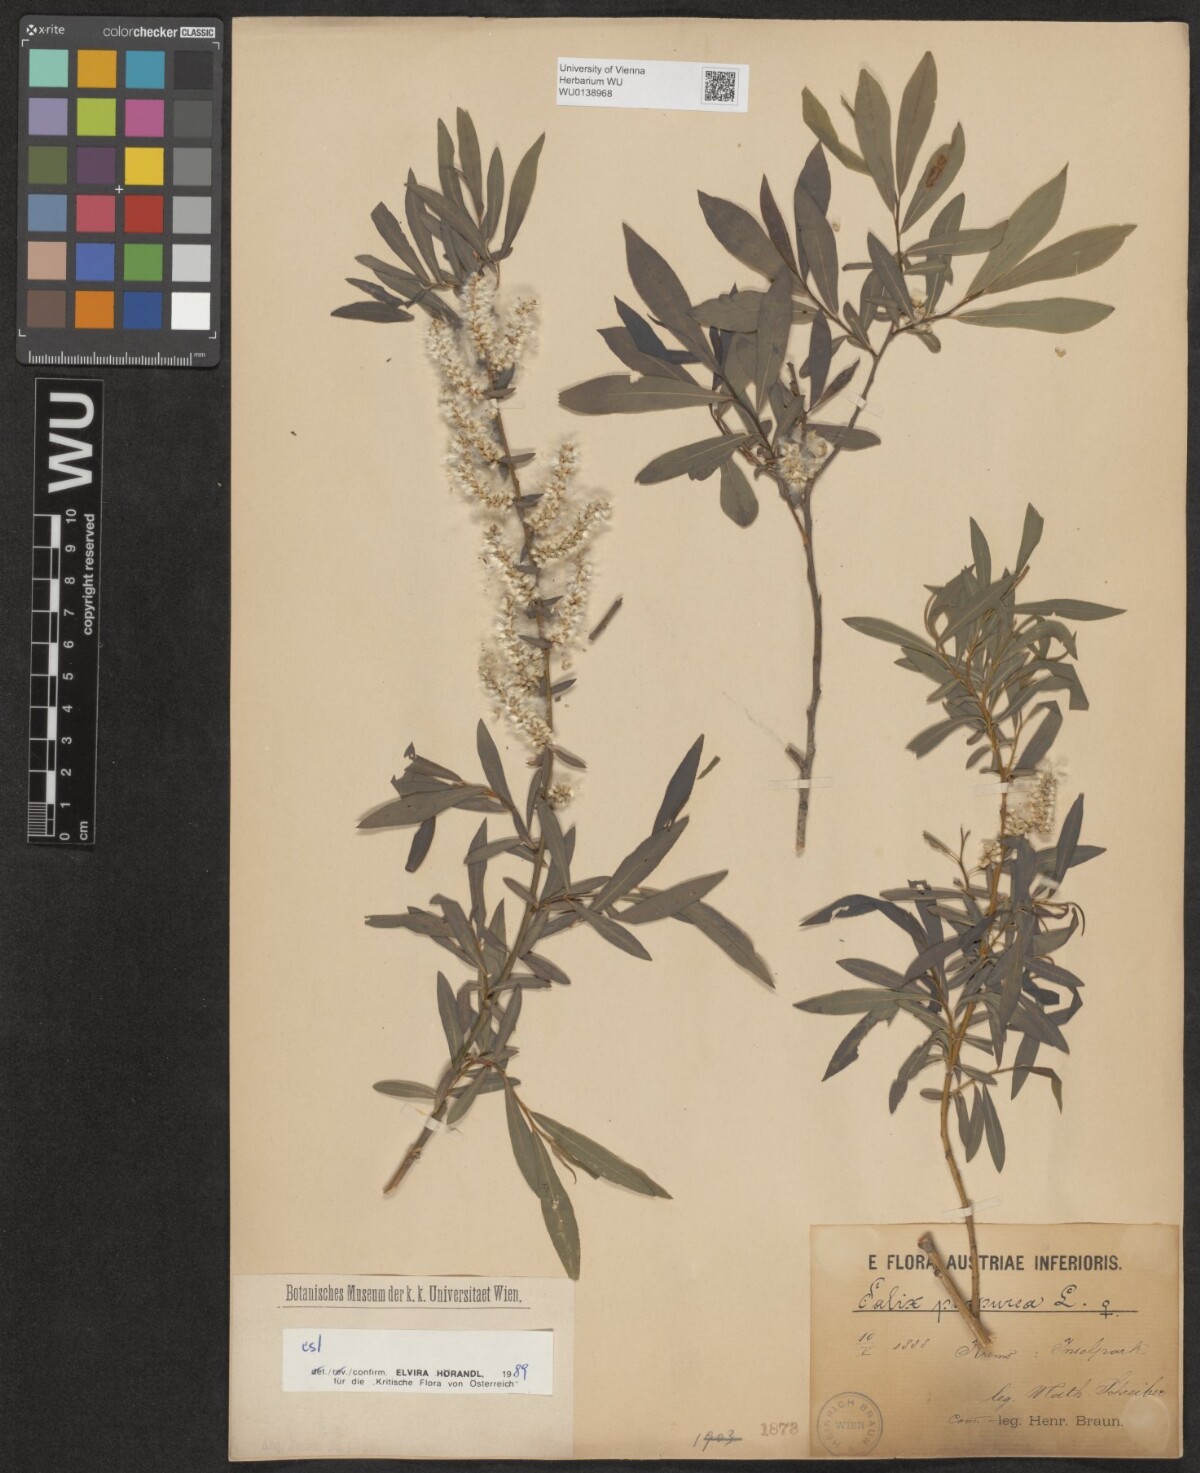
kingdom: Plantae
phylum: Tracheophyta
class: Magnoliopsida
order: Malpighiales
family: Salicaceae
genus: Salix
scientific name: Salix purpurea
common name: Purple willow
